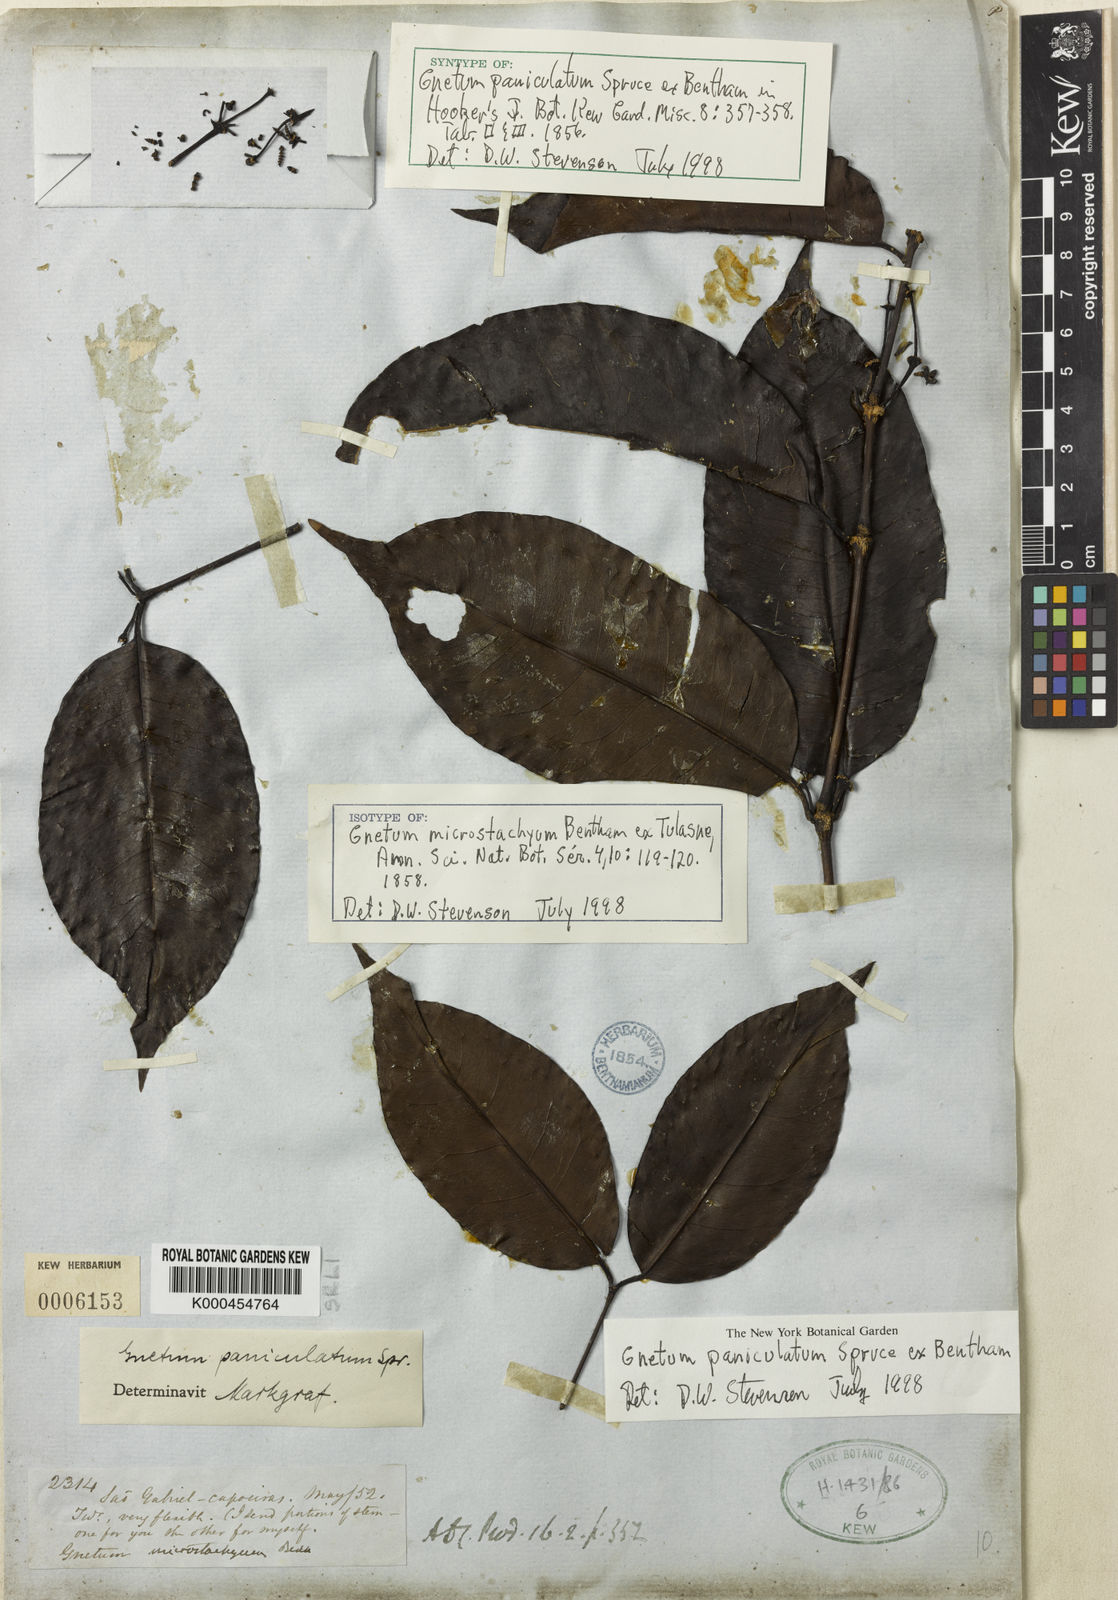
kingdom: Plantae
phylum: Tracheophyta
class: Gnetopsida
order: Gnetales
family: Gnetaceae
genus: Gnetum
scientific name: Gnetum paniculatum
